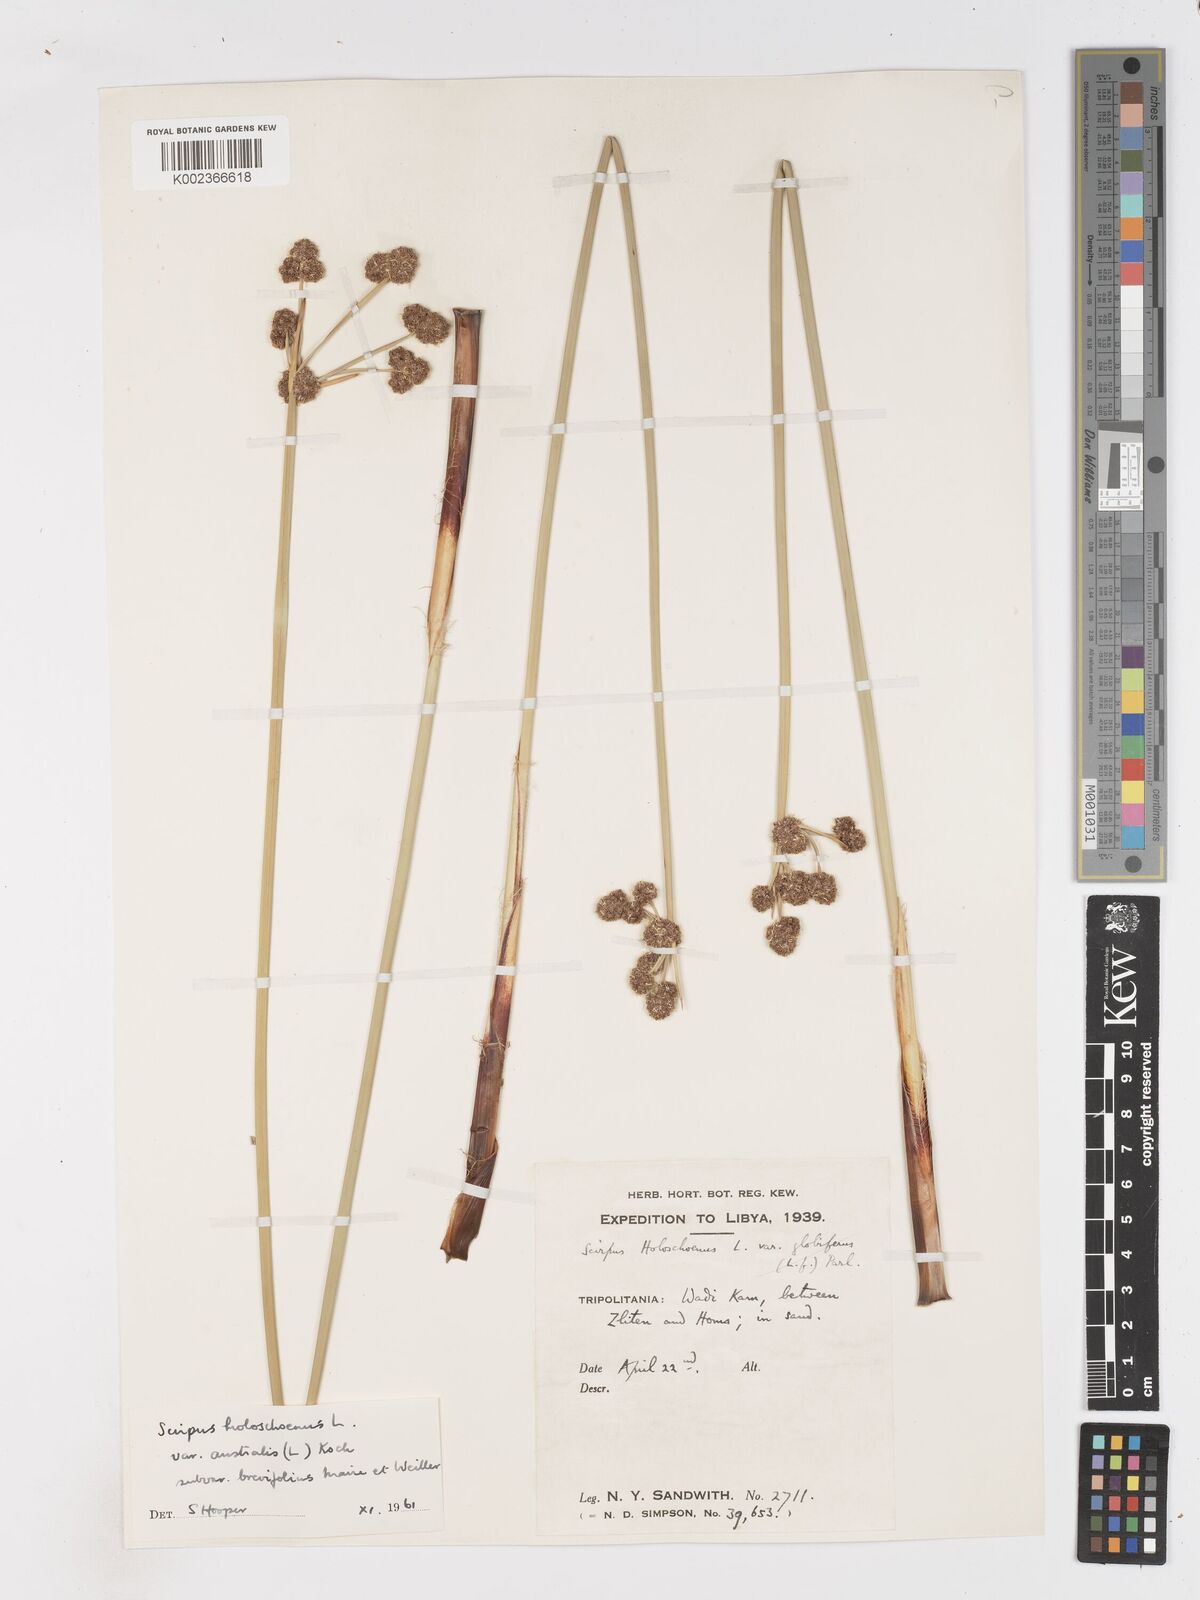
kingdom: Plantae
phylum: Tracheophyta
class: Liliopsida
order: Poales
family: Cyperaceae
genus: Scirpoides
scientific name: Scirpoides holoschoenus
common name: Round-headed club-rush
